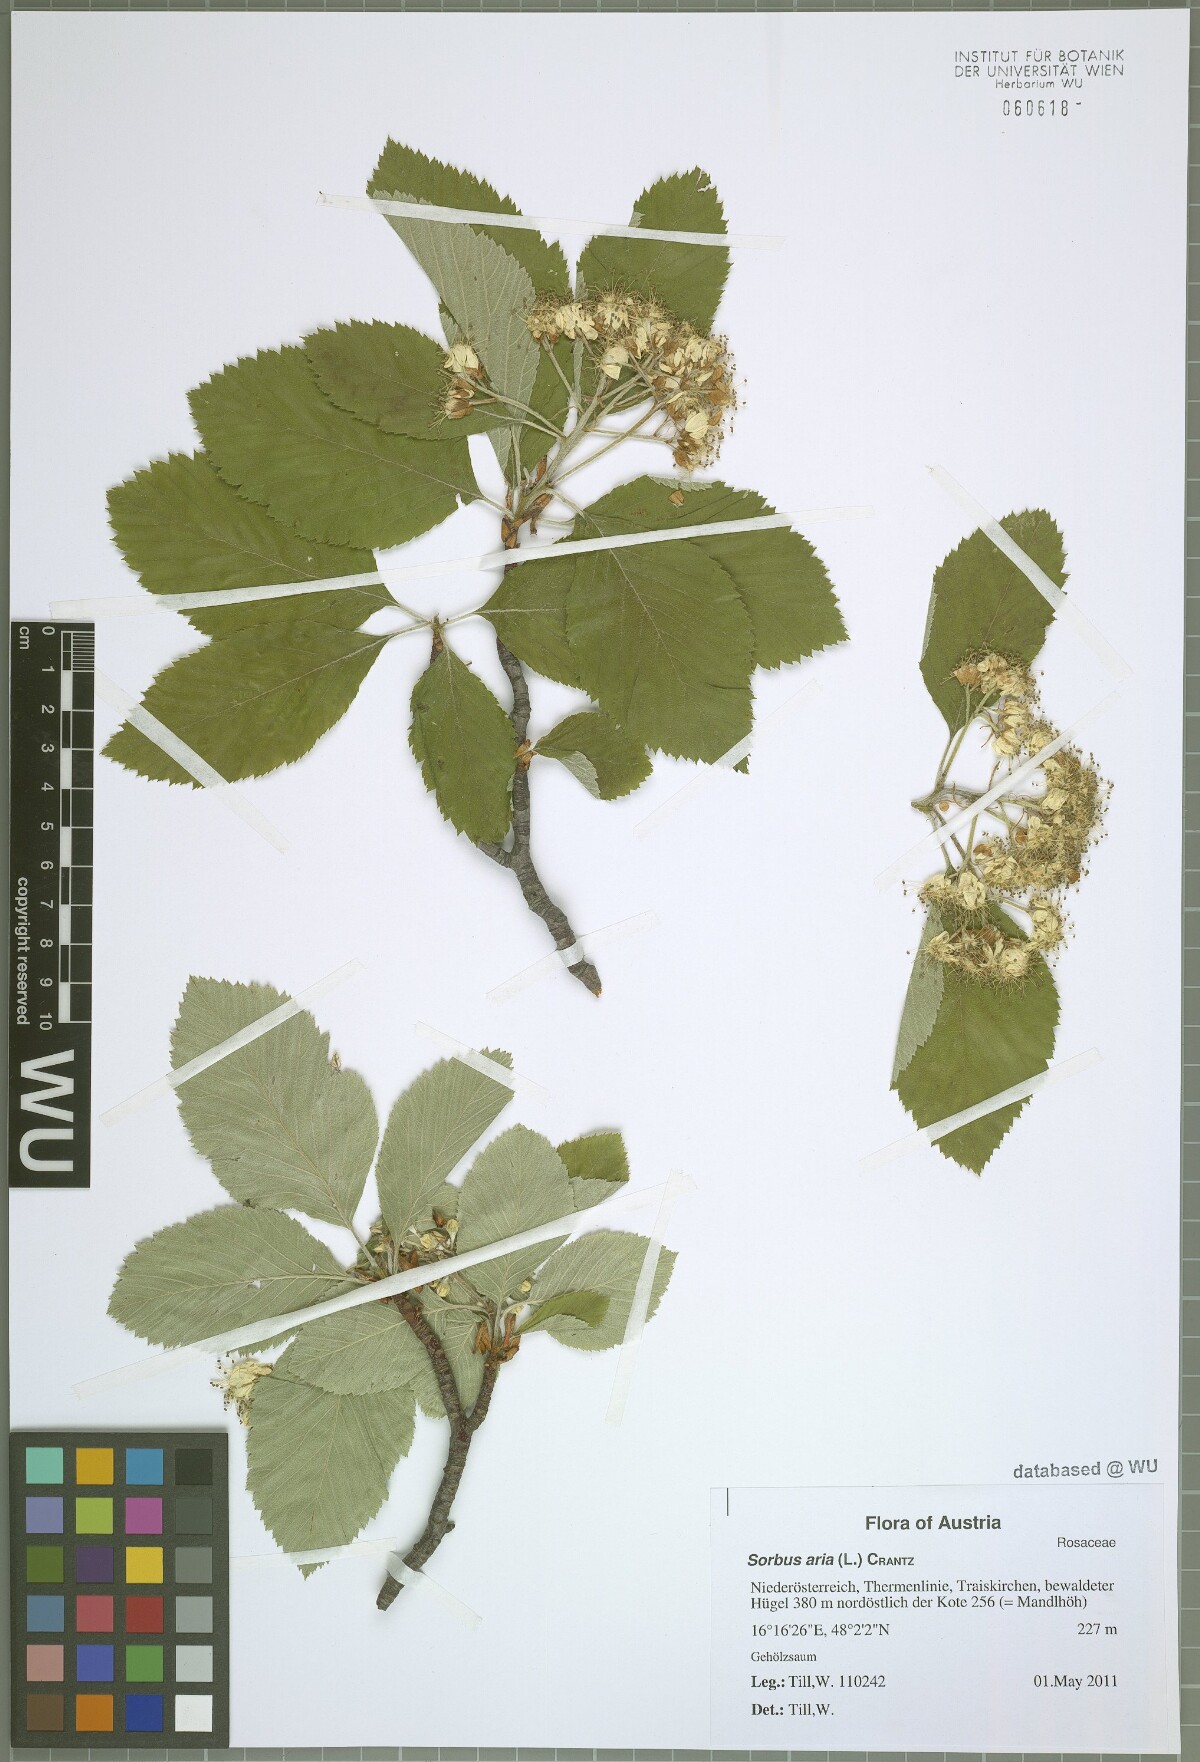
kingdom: Plantae
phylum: Tracheophyta
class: Magnoliopsida
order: Rosales
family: Rosaceae
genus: Aria
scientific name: Aria edulis
